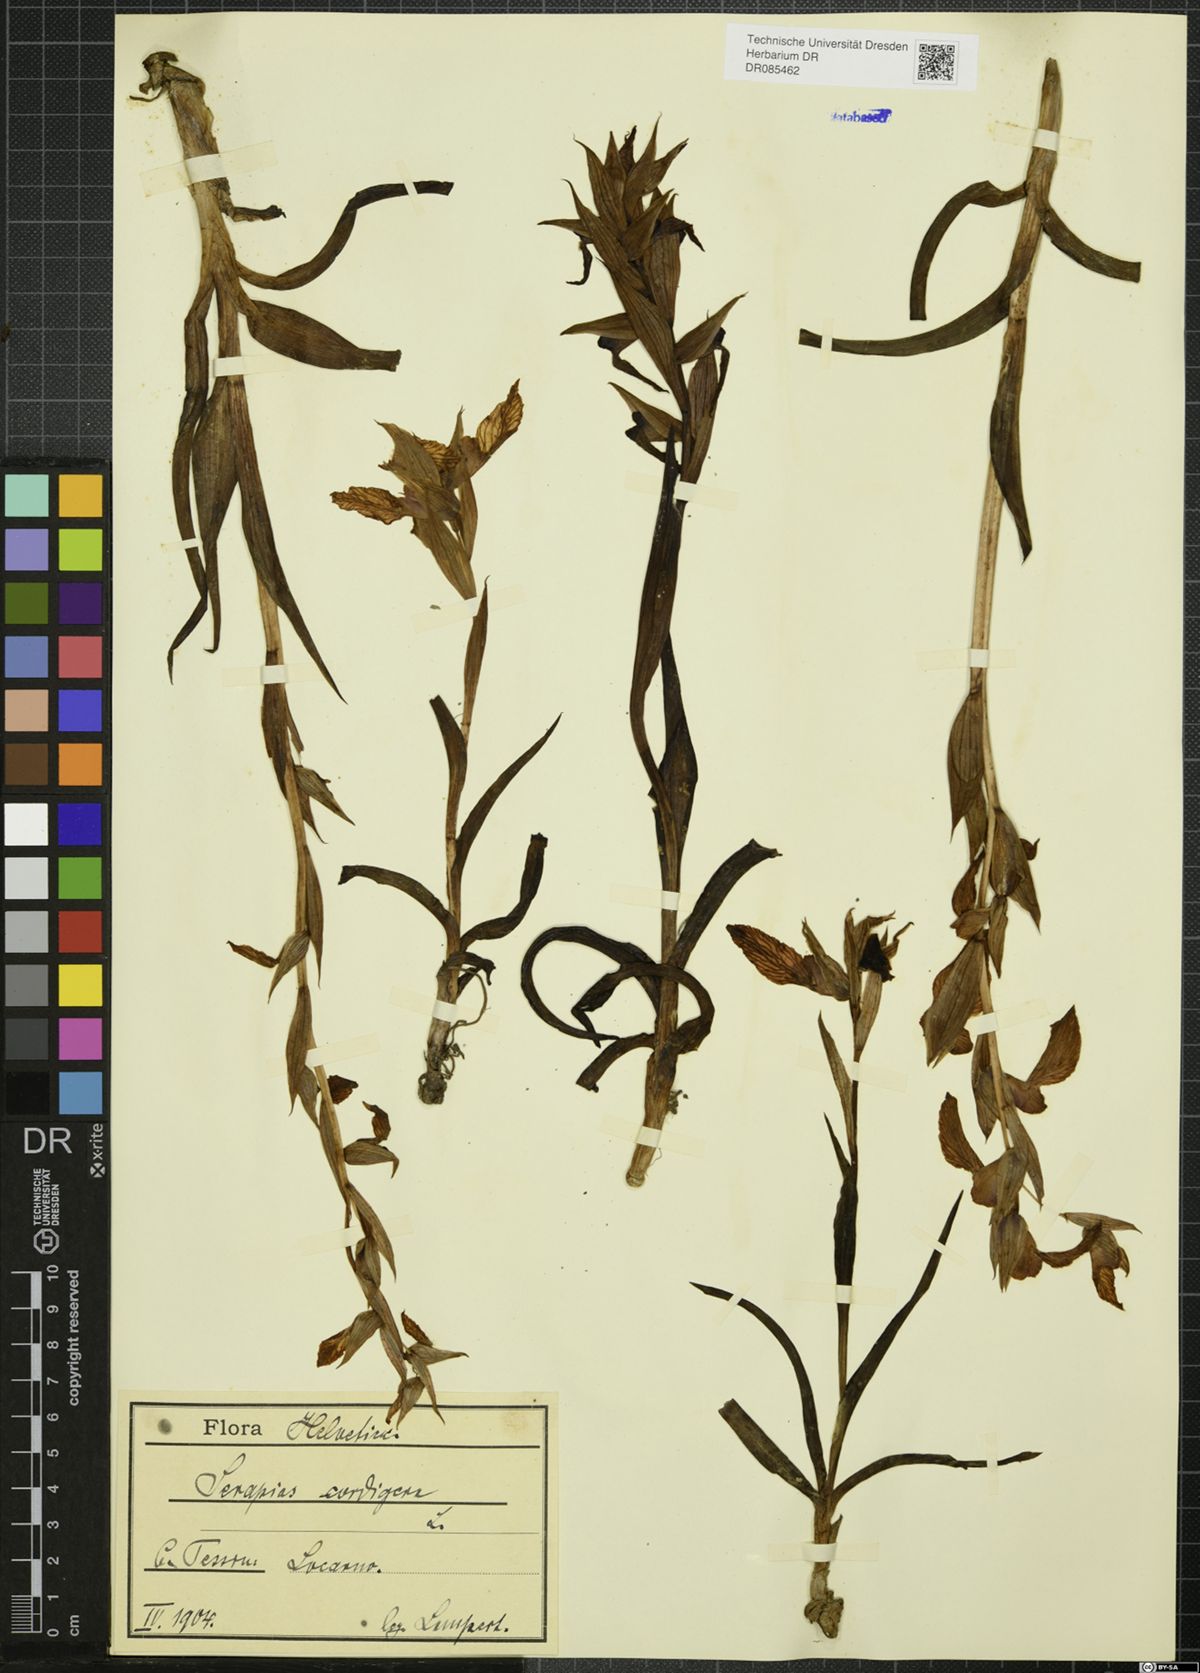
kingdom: Plantae
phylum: Tracheophyta
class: Liliopsida
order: Asparagales
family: Orchidaceae
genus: Serapias
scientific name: Serapias cordigera
